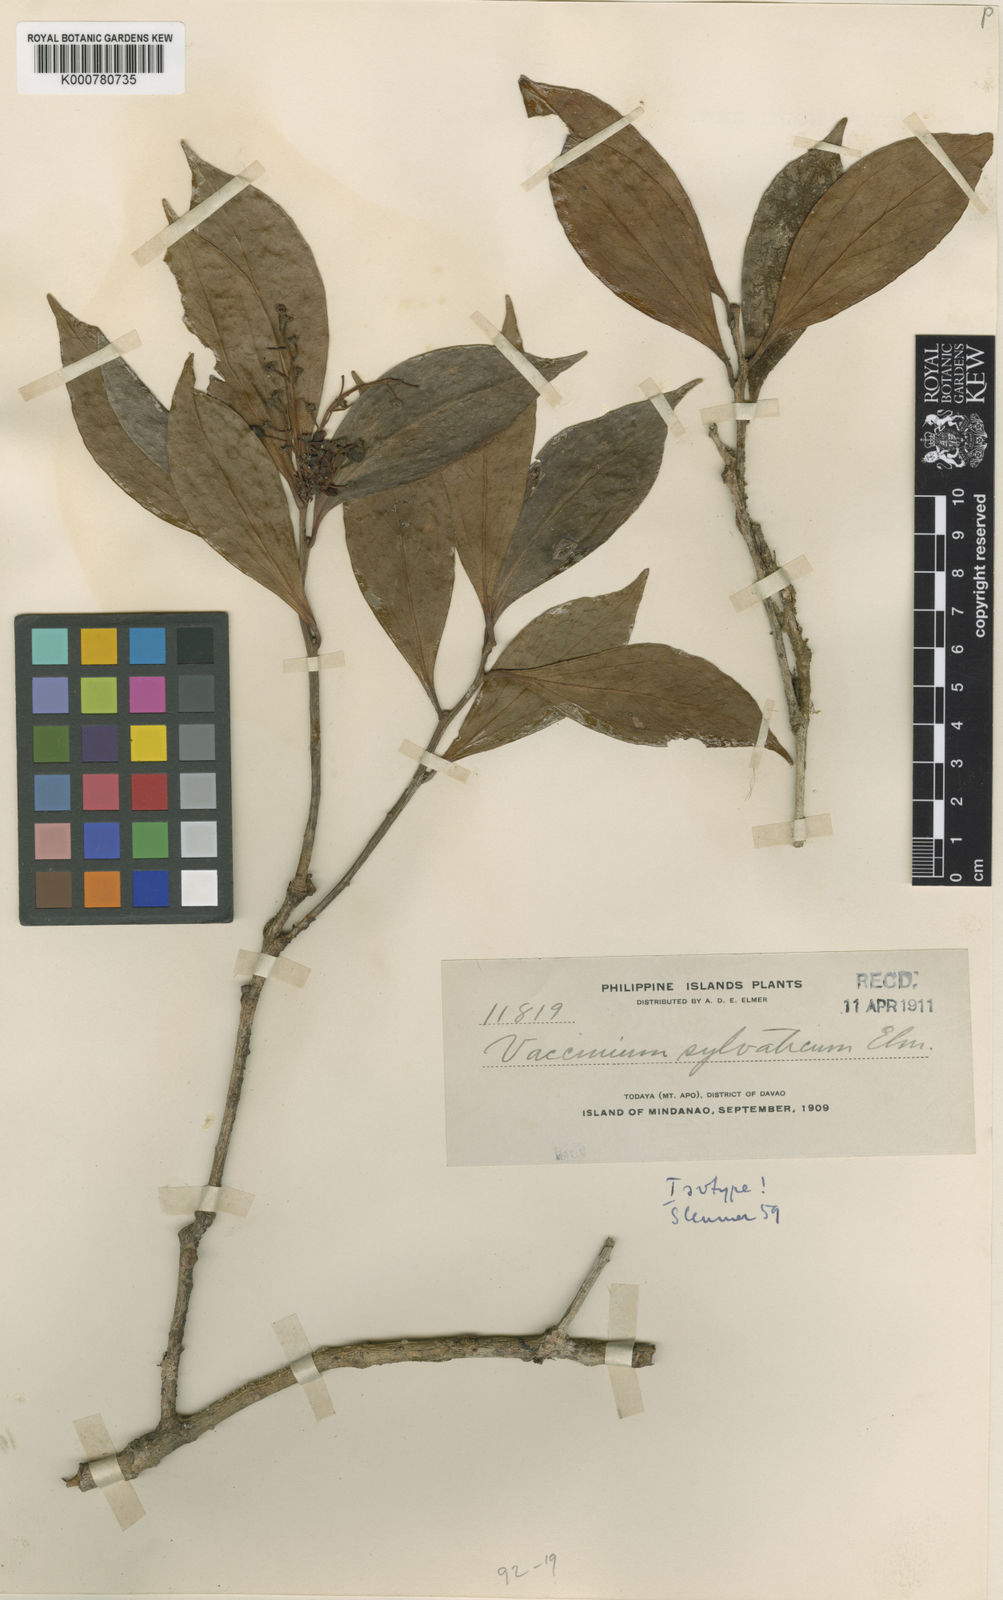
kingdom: Plantae
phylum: Tracheophyta
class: Magnoliopsida
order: Ericales
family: Ericaceae
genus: Vaccinium
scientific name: Vaccinium sylvaticum
